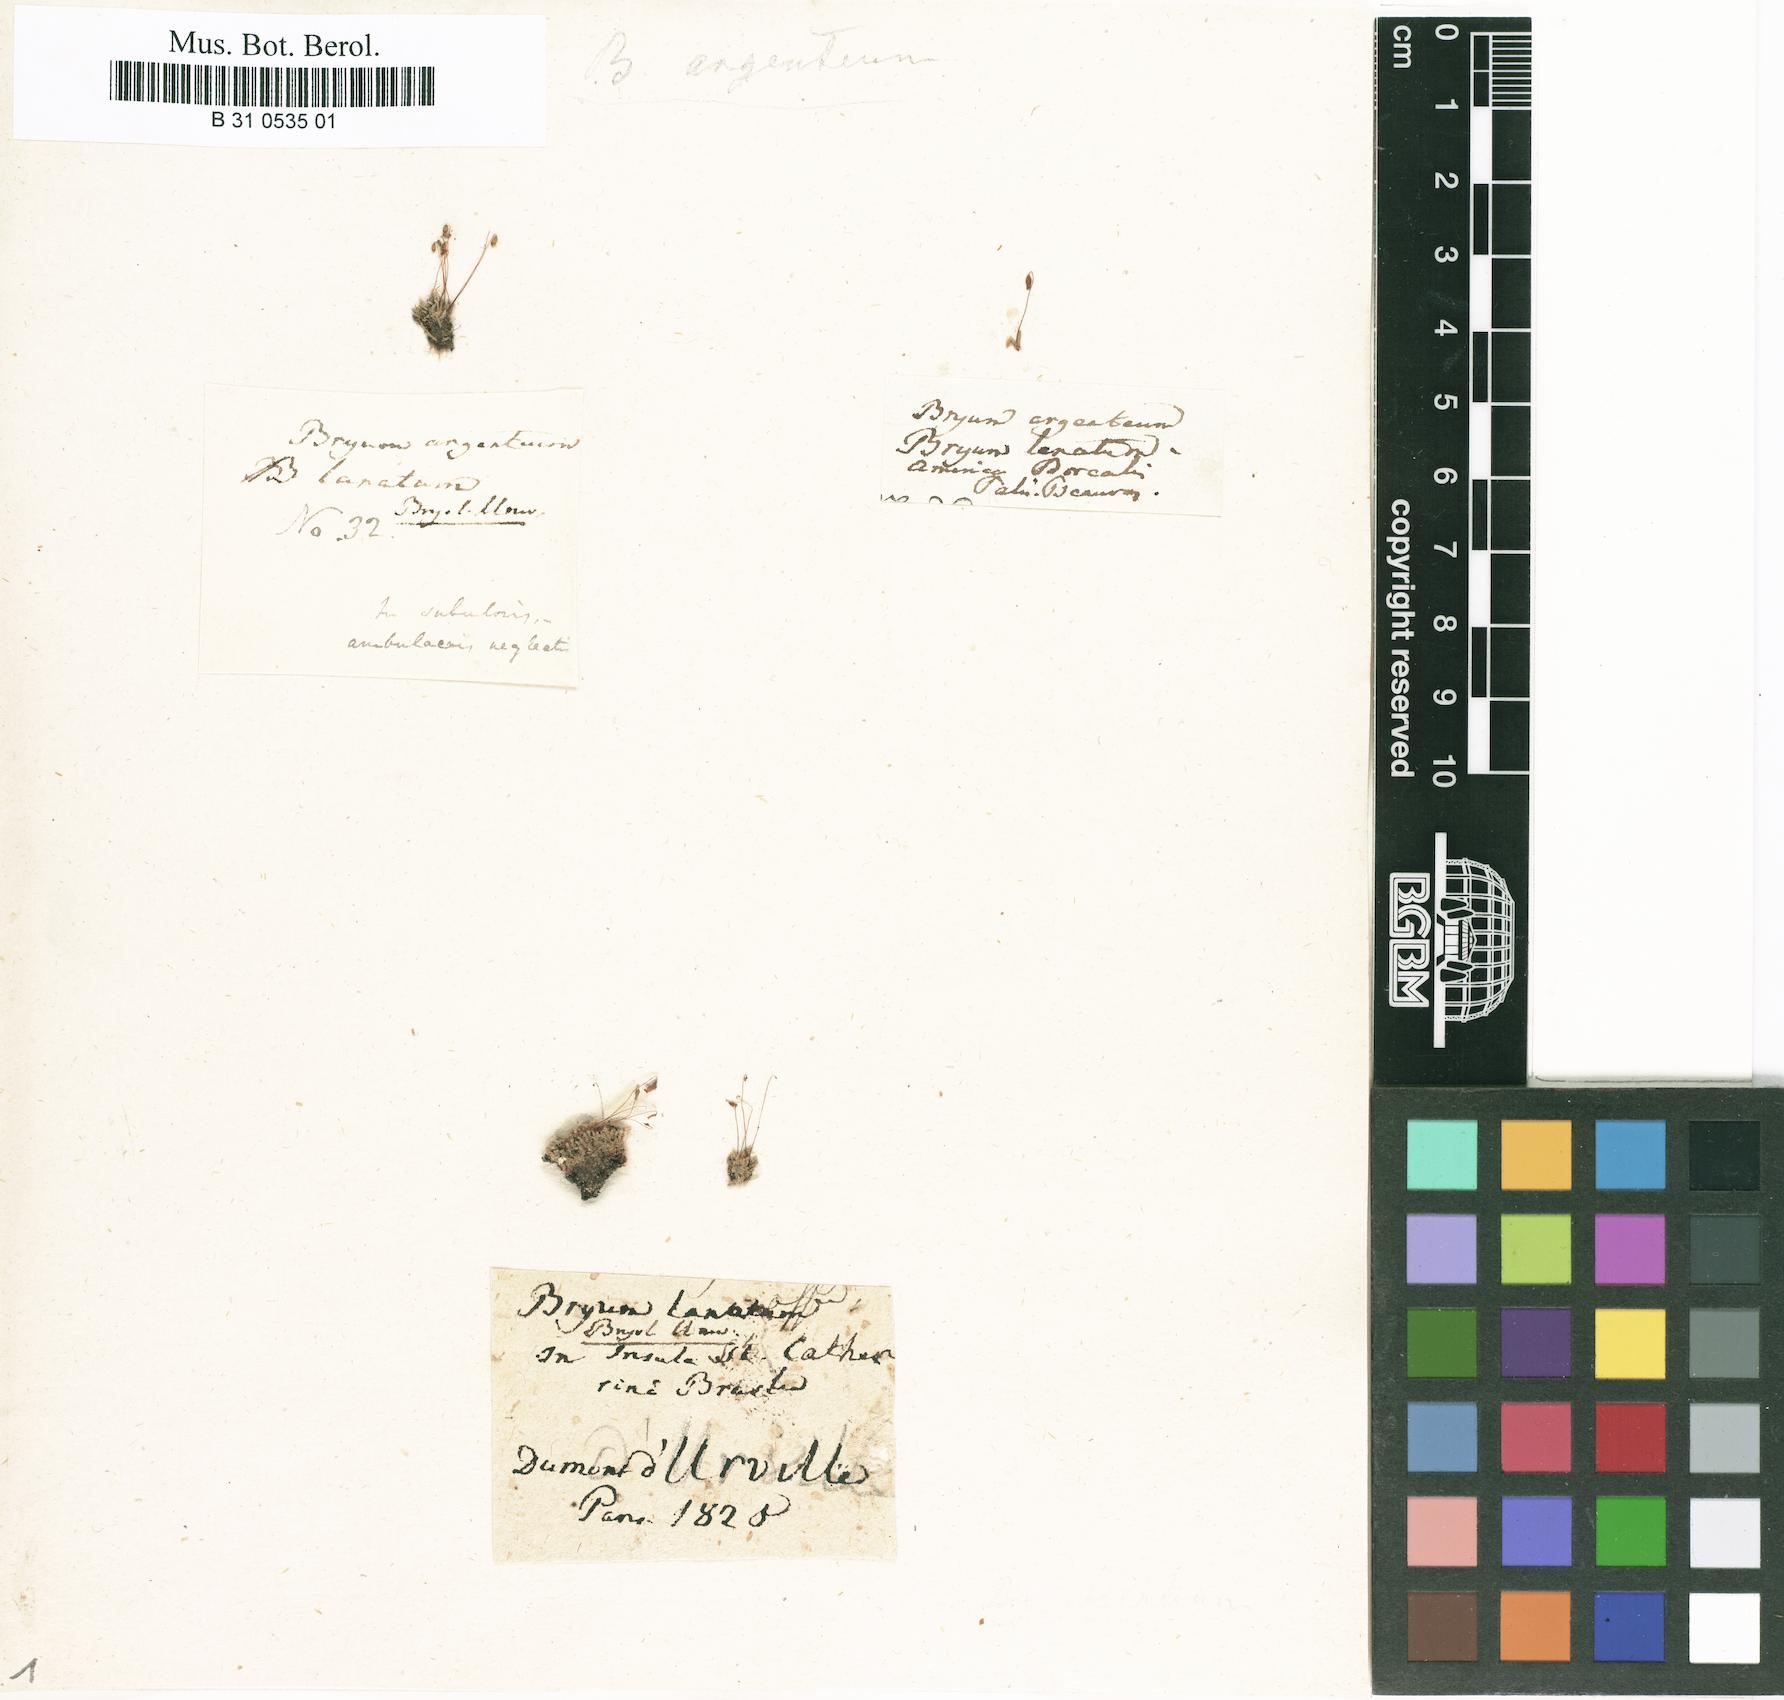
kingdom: Plantae
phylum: Bryophyta
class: Bryopsida
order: Bryales
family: Bryaceae
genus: Bryum
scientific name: Bryum lanatum
